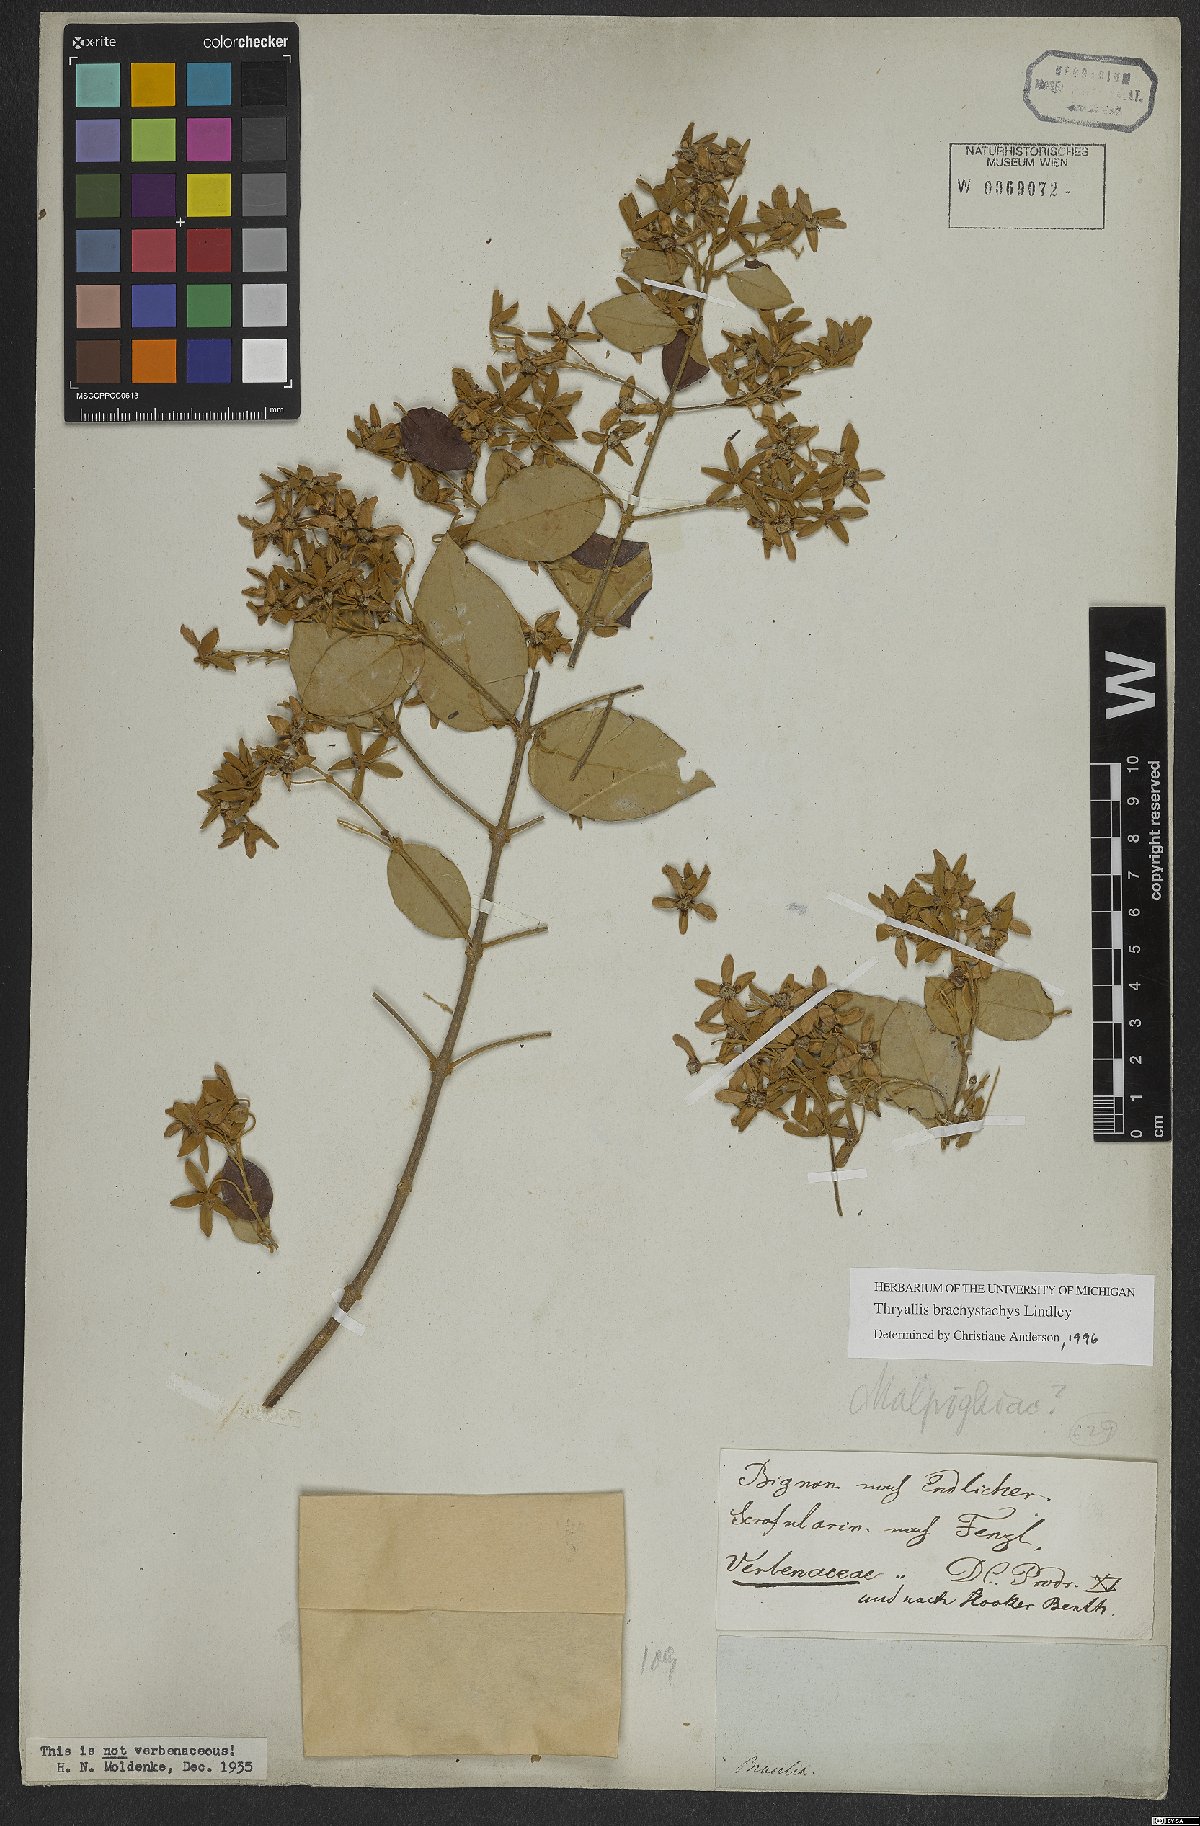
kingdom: Plantae
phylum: Tracheophyta
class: Magnoliopsida
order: Malpighiales
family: Malpighiaceae
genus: Thryallis
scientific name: Thryallis brachystachys
